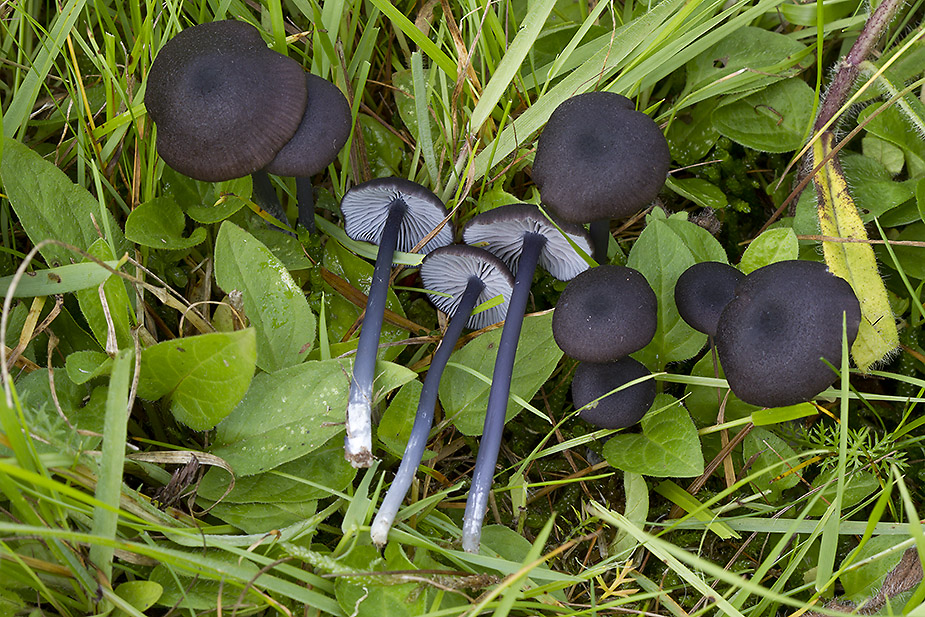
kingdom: Fungi
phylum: Basidiomycota
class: Agaricomycetes
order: Agaricales
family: Entolomataceae
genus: Entoloma
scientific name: Entoloma chalybeum
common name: blåbladet rødblad
